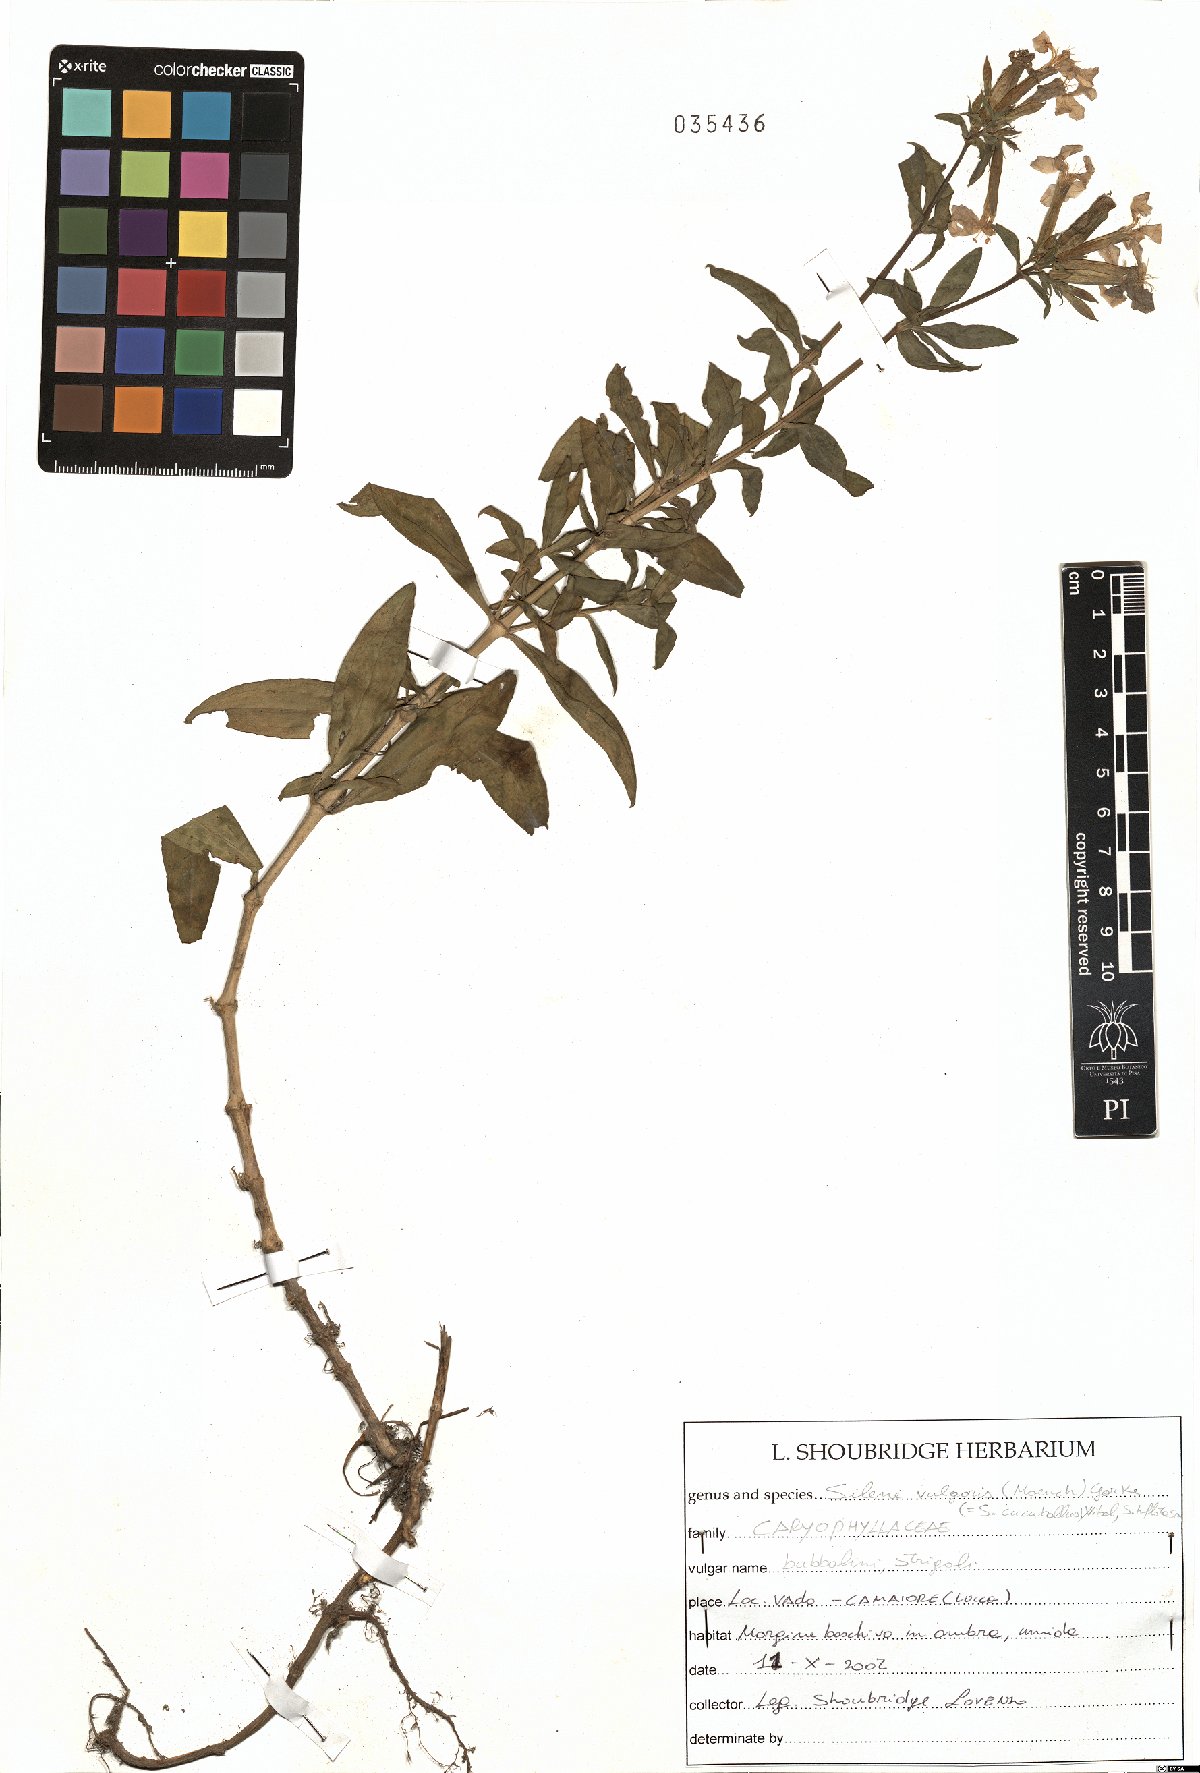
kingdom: Plantae
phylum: Tracheophyta
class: Magnoliopsida
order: Caryophyllales
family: Caryophyllaceae
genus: Silene
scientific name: Silene vulgaris
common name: Bladder campion
